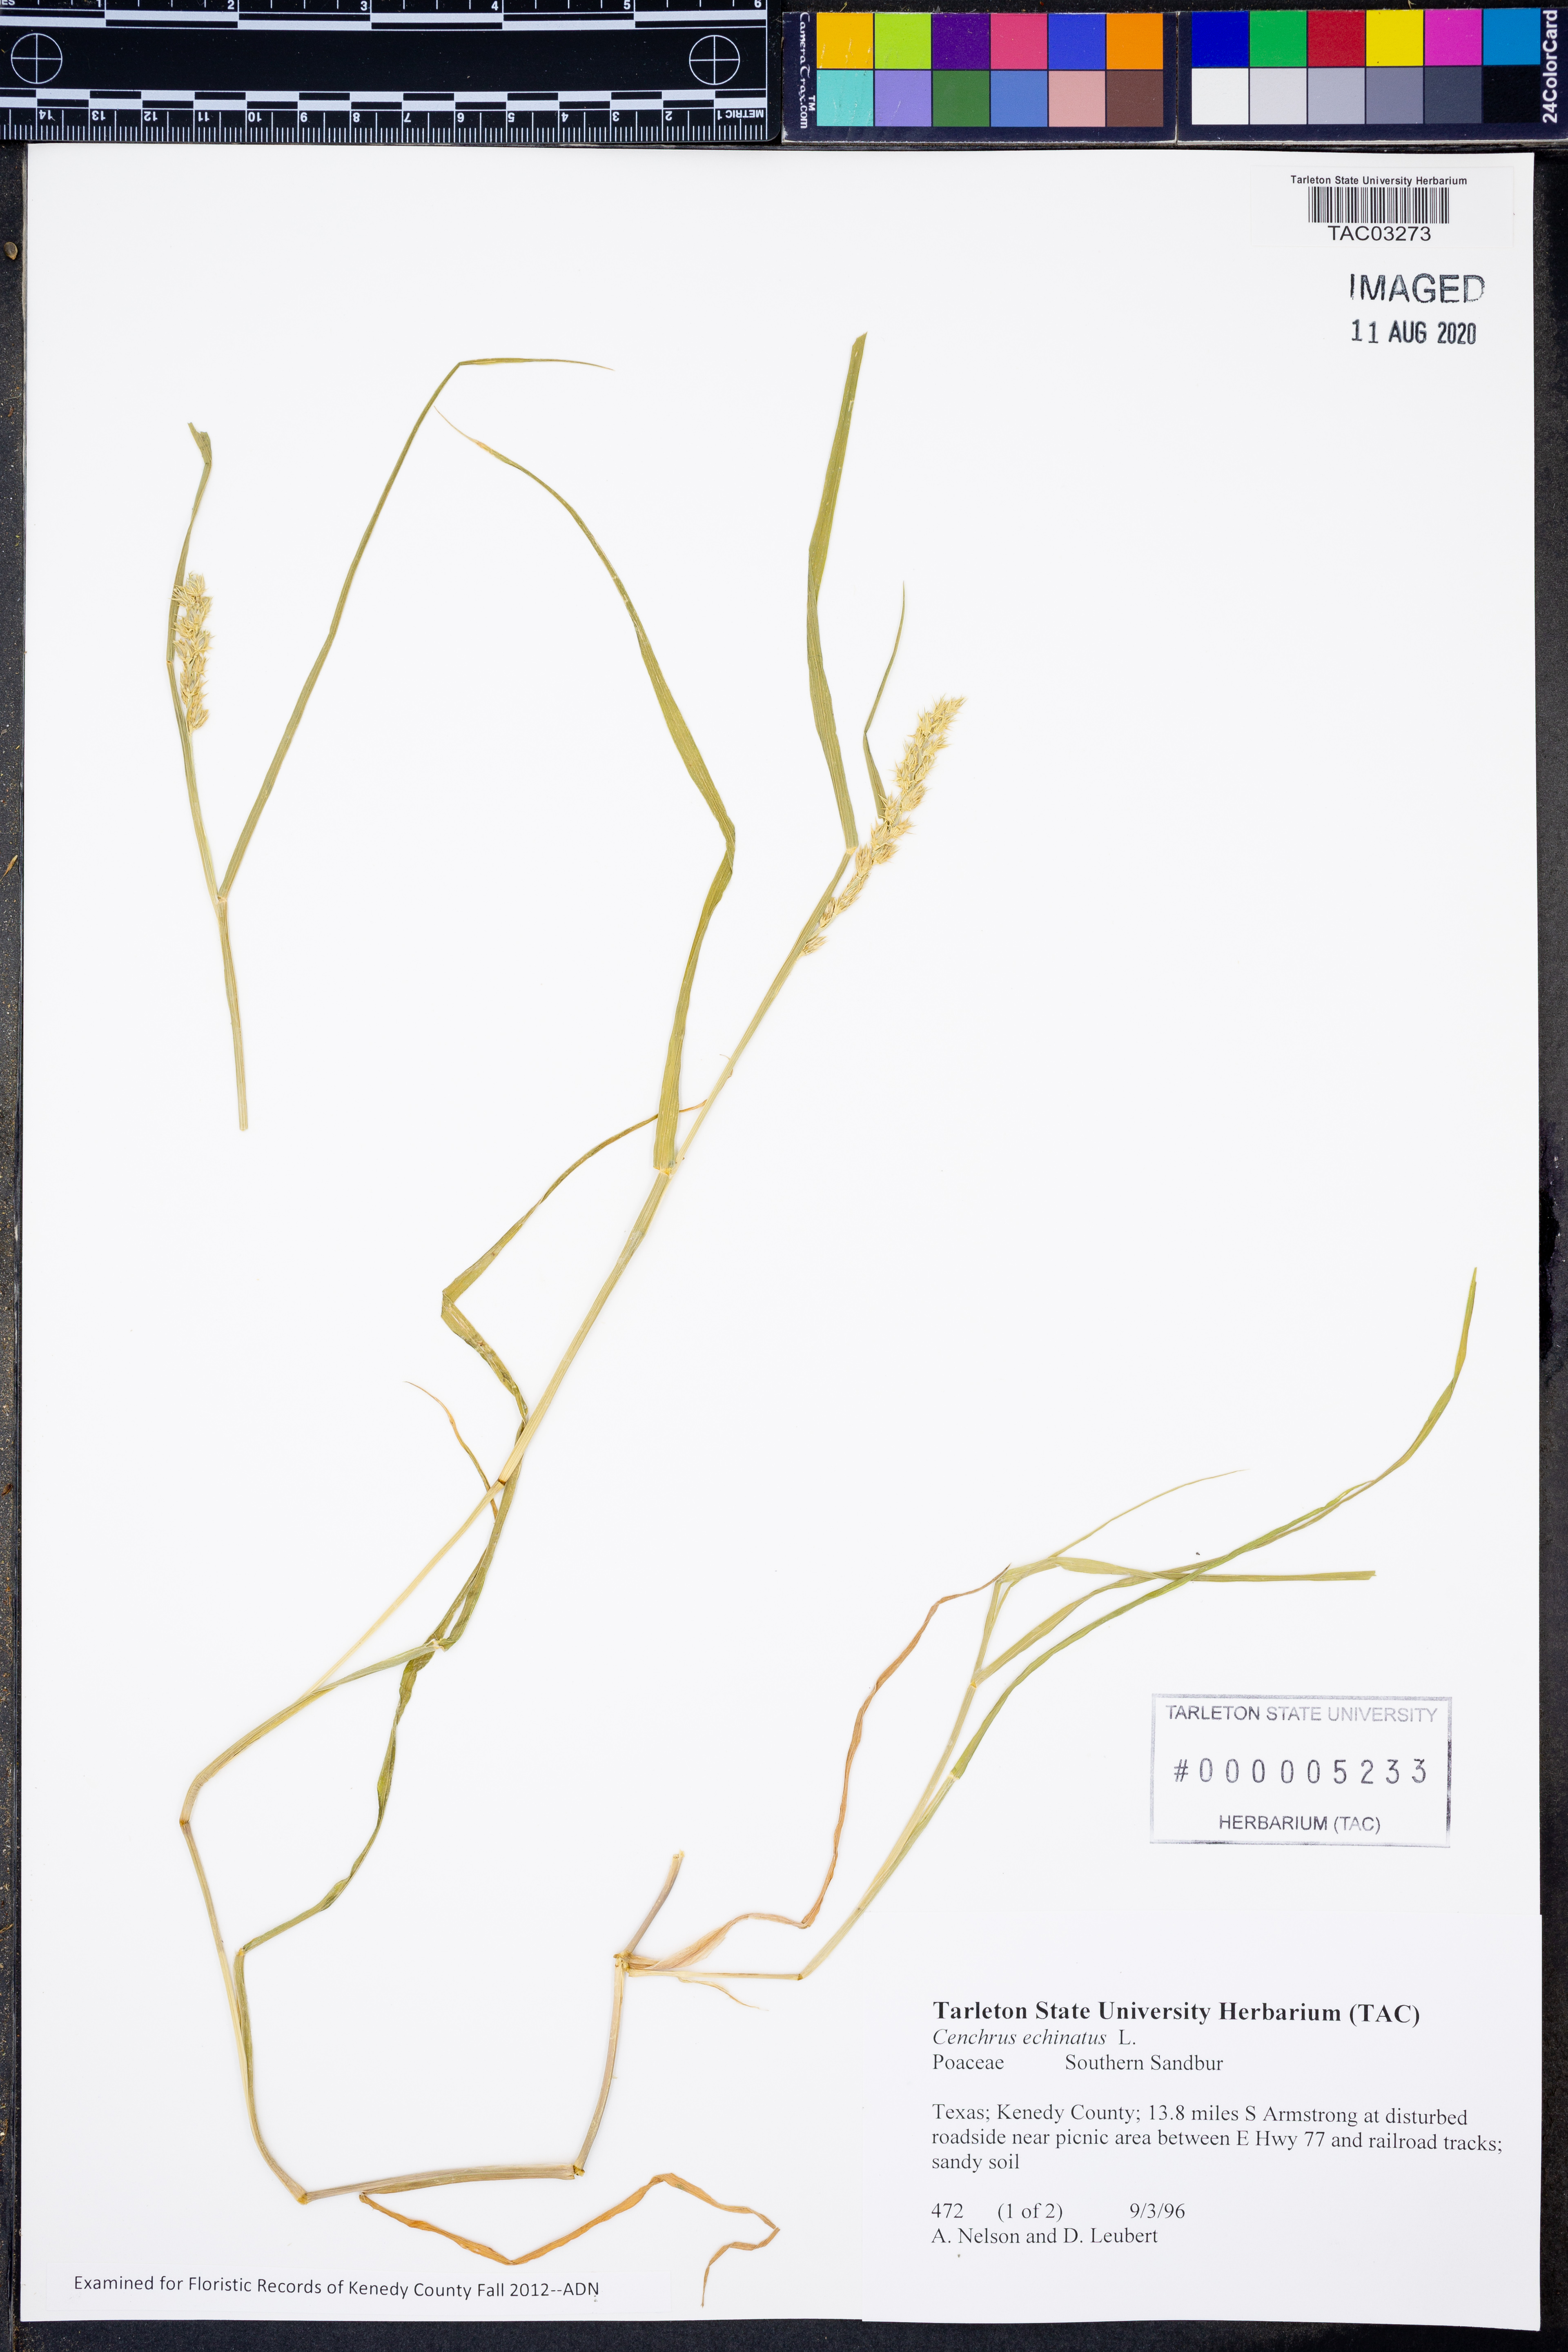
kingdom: Plantae
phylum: Tracheophyta
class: Liliopsida
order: Poales
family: Poaceae
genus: Cenchrus
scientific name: Cenchrus echinatus
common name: Southern sandbur
